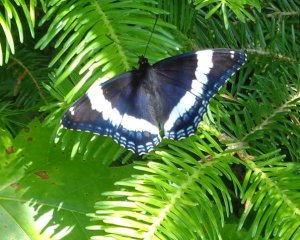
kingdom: Animalia
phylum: Arthropoda
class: Insecta
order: Lepidoptera
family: Nymphalidae
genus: Limenitis
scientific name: Limenitis arthemis
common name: Red-spotted Admiral
